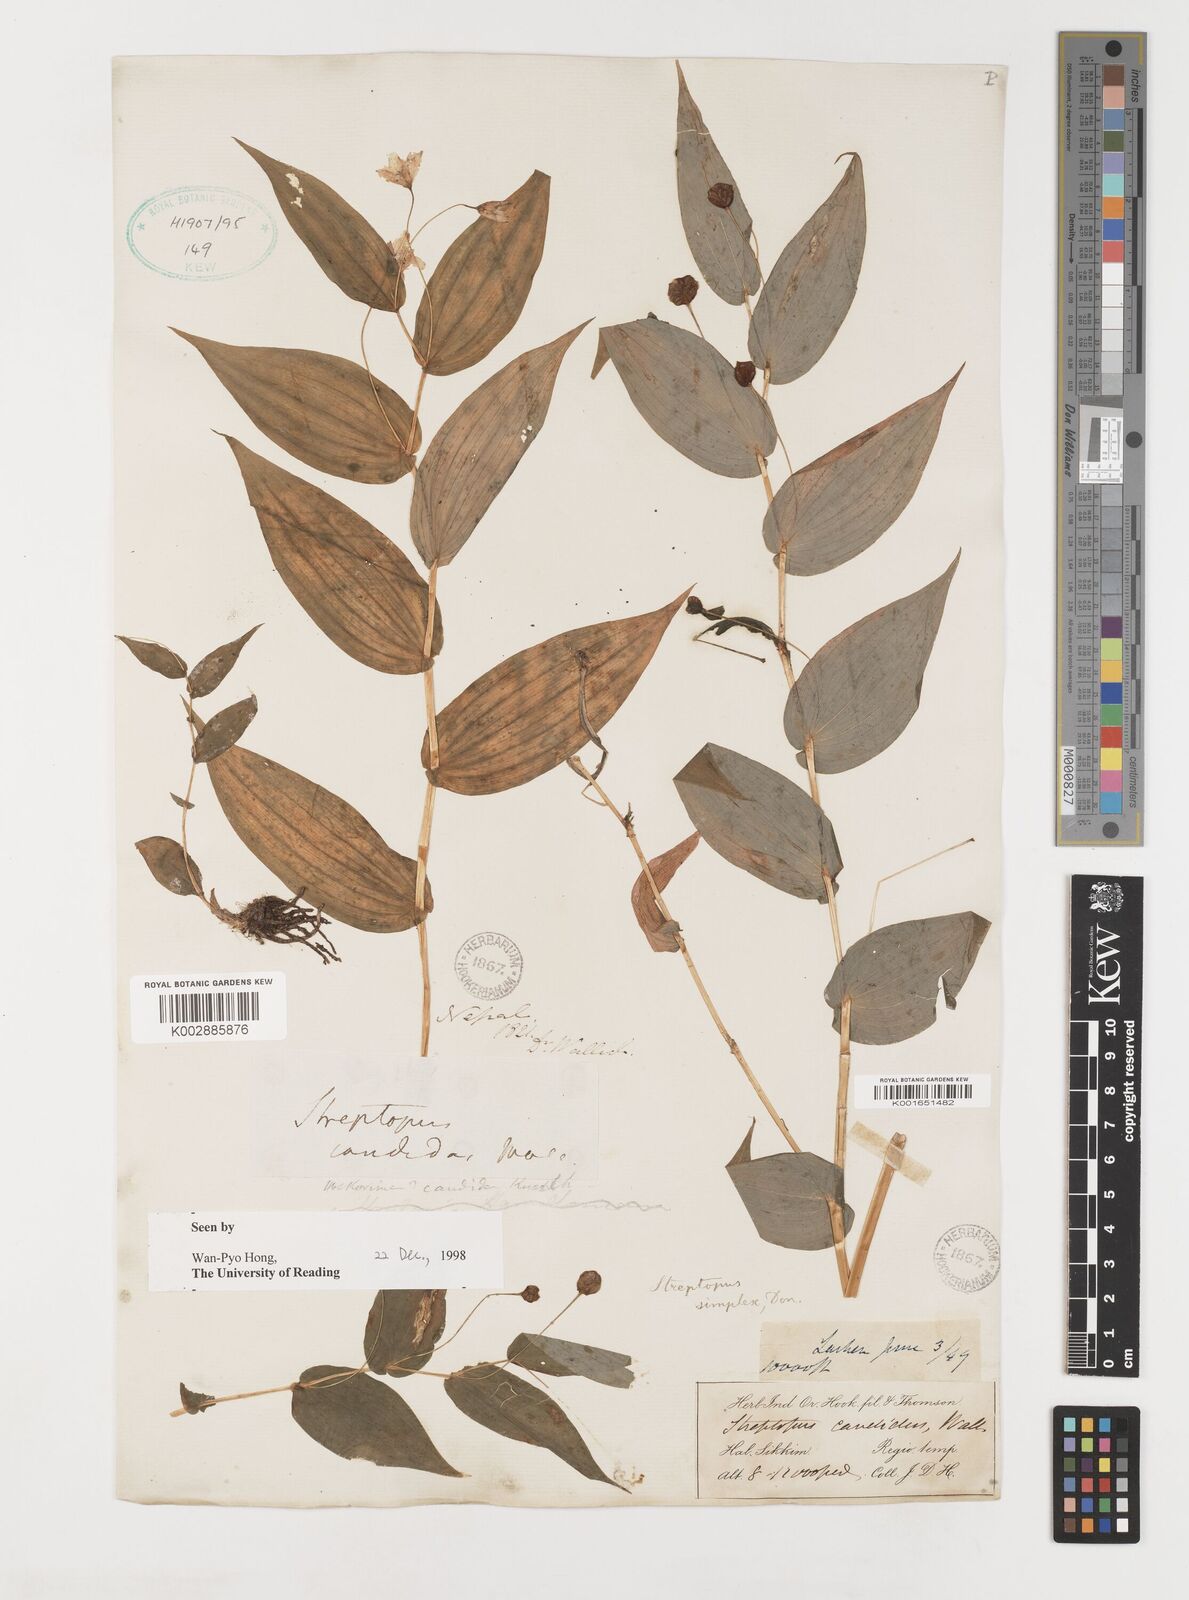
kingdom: Plantae
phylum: Tracheophyta
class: Liliopsida
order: Liliales
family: Liliaceae
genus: Streptopus
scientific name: Streptopus simplex
